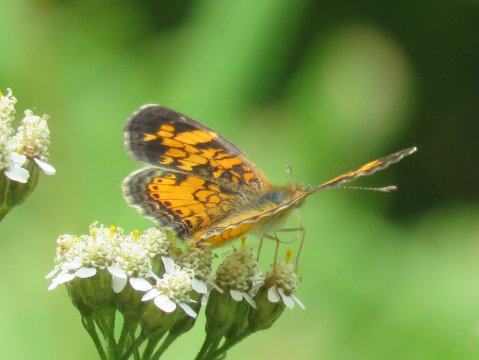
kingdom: Animalia
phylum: Arthropoda
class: Insecta
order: Lepidoptera
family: Nymphalidae
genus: Phyciodes
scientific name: Phyciodes
